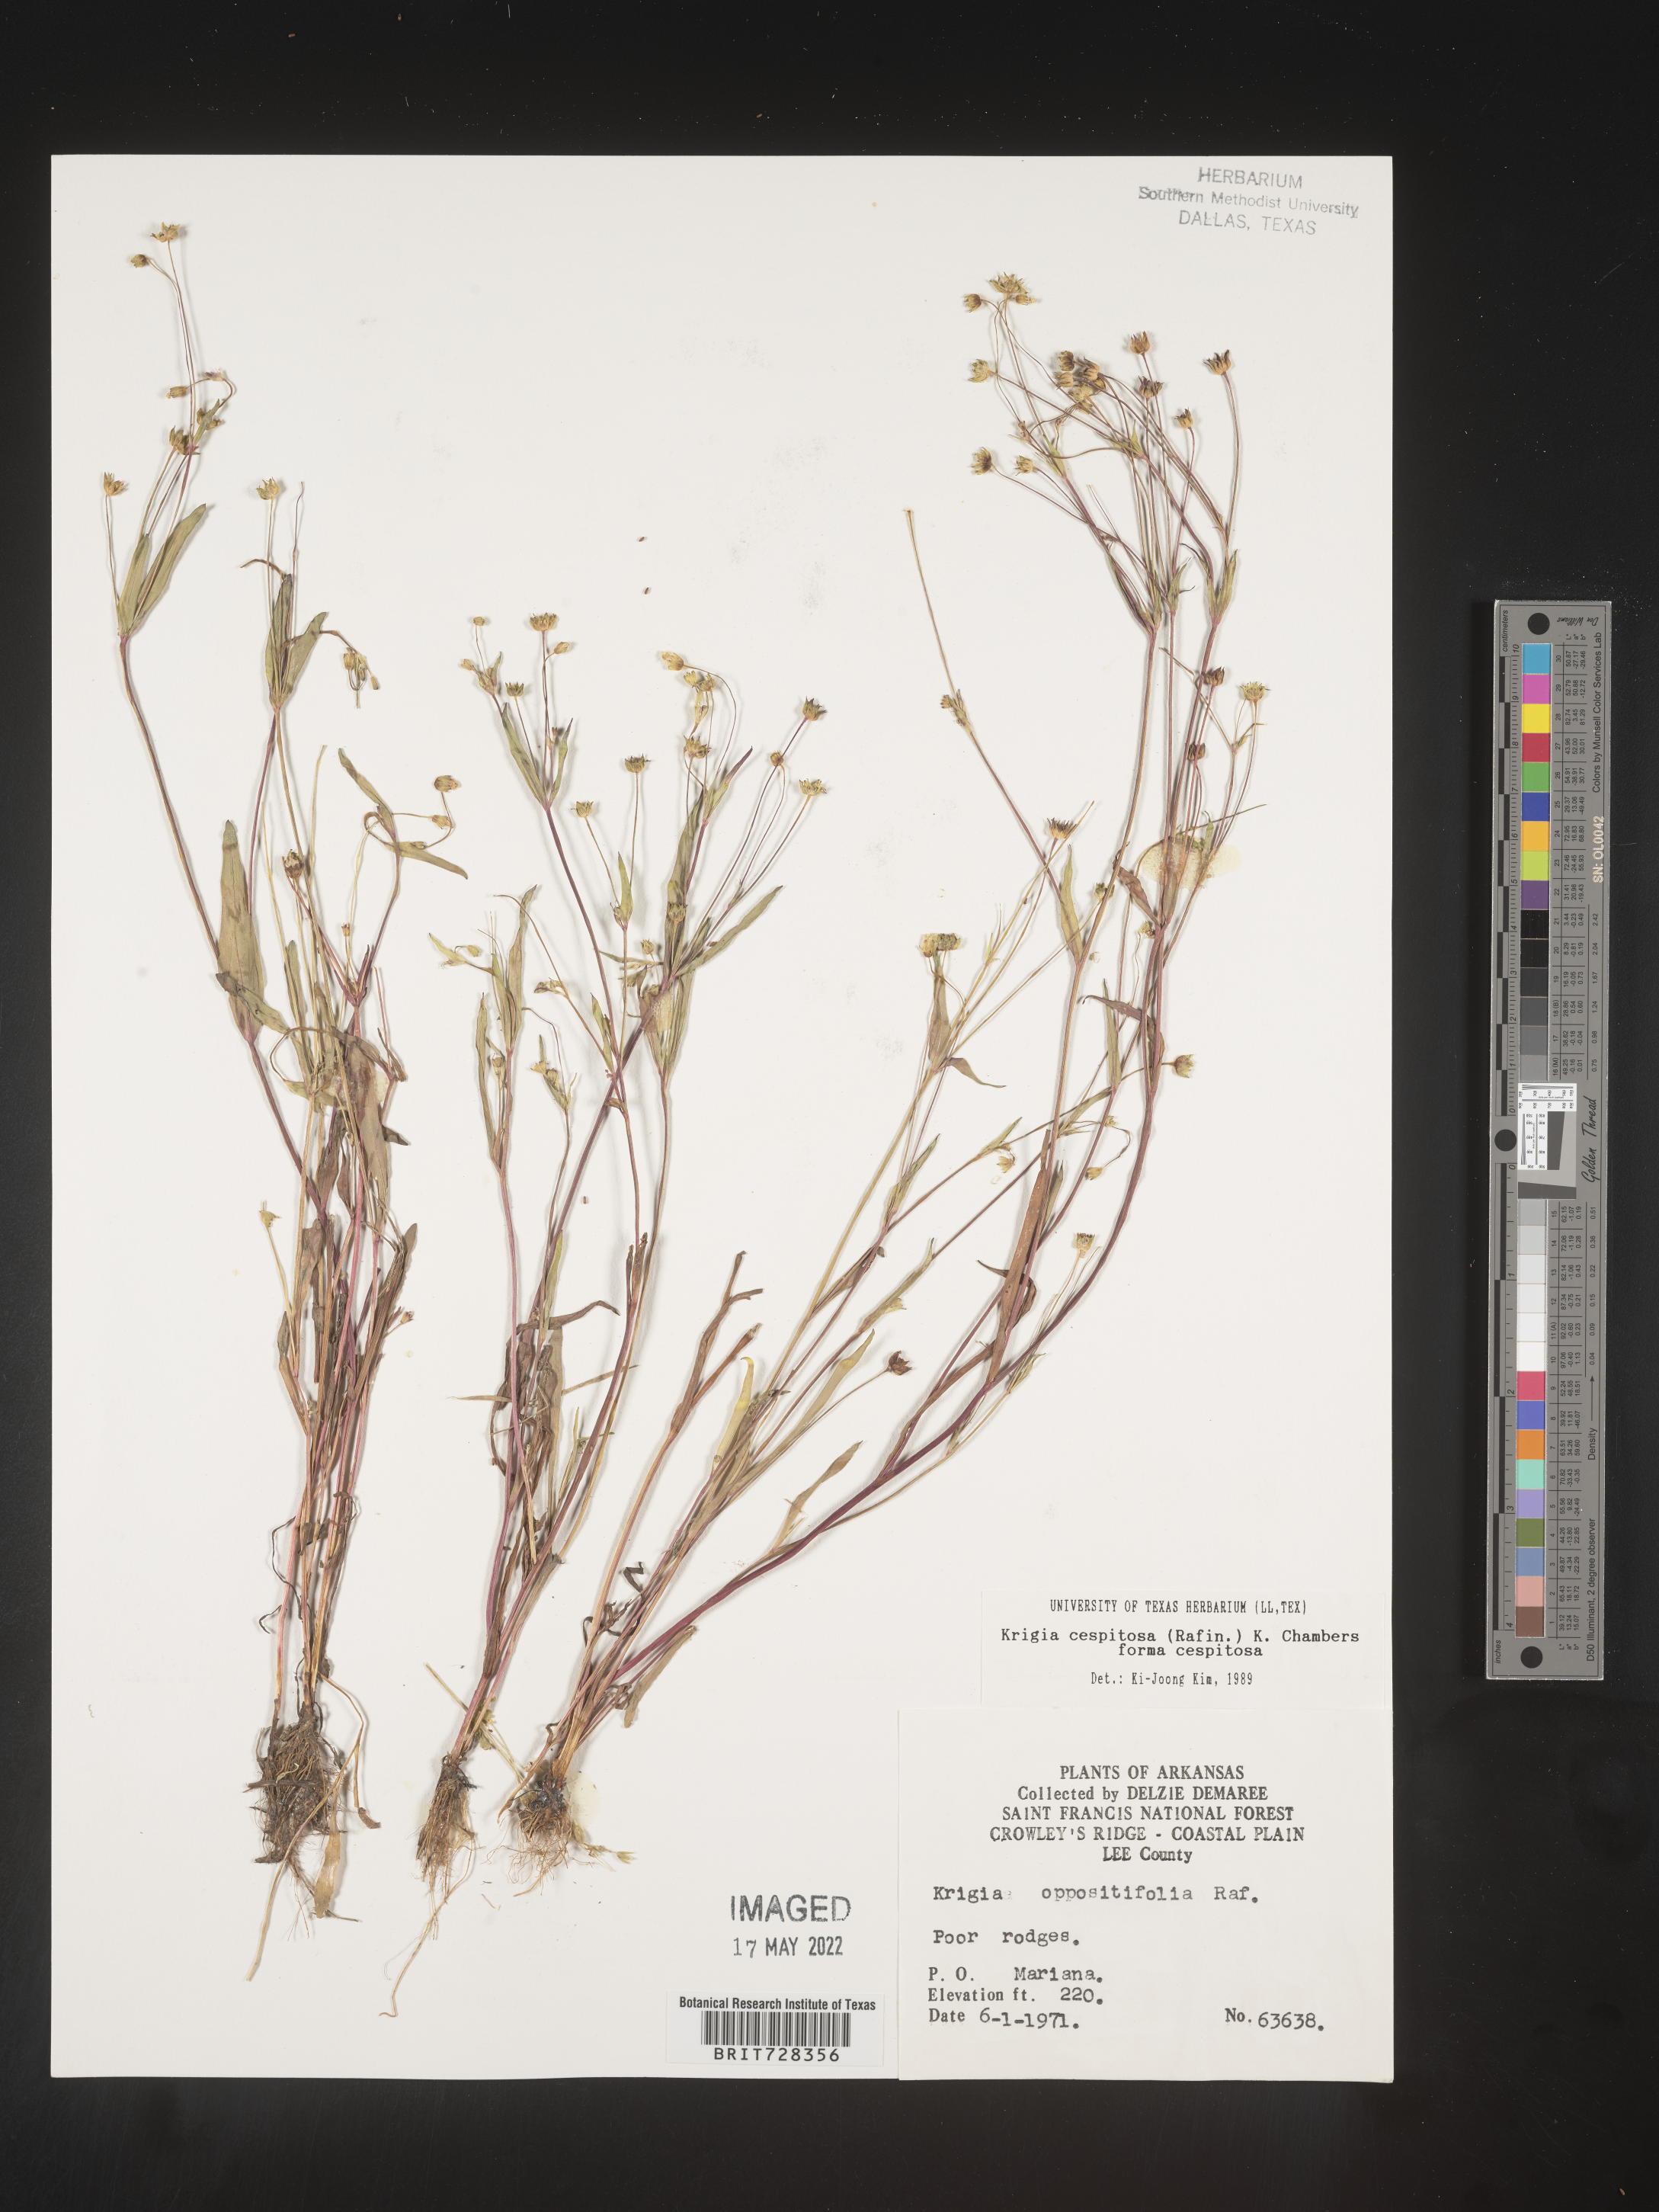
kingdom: Plantae
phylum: Tracheophyta
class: Magnoliopsida
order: Asterales
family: Asteraceae
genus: Krigia
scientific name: Krigia caespitosa
